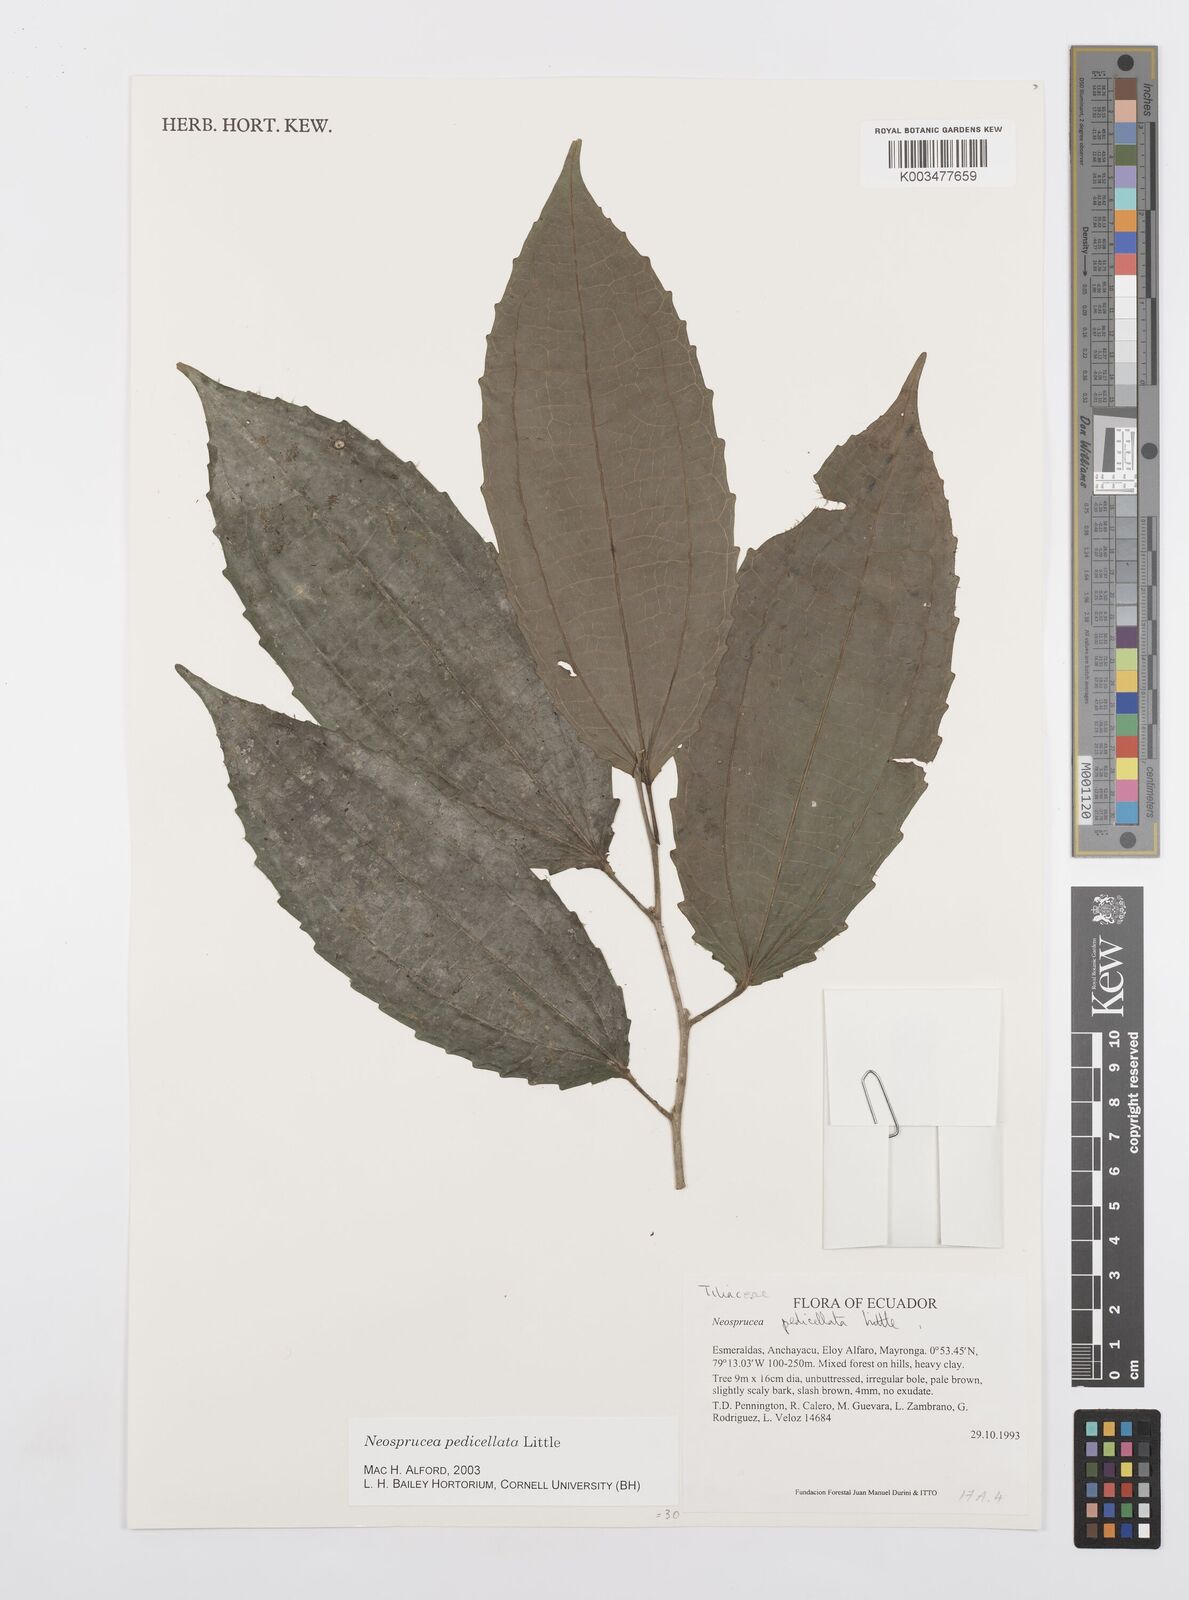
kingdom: Plantae
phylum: Tracheophyta
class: Magnoliopsida
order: Malpighiales
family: Salicaceae
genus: Neosprucea
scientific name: Neosprucea pedicellata
